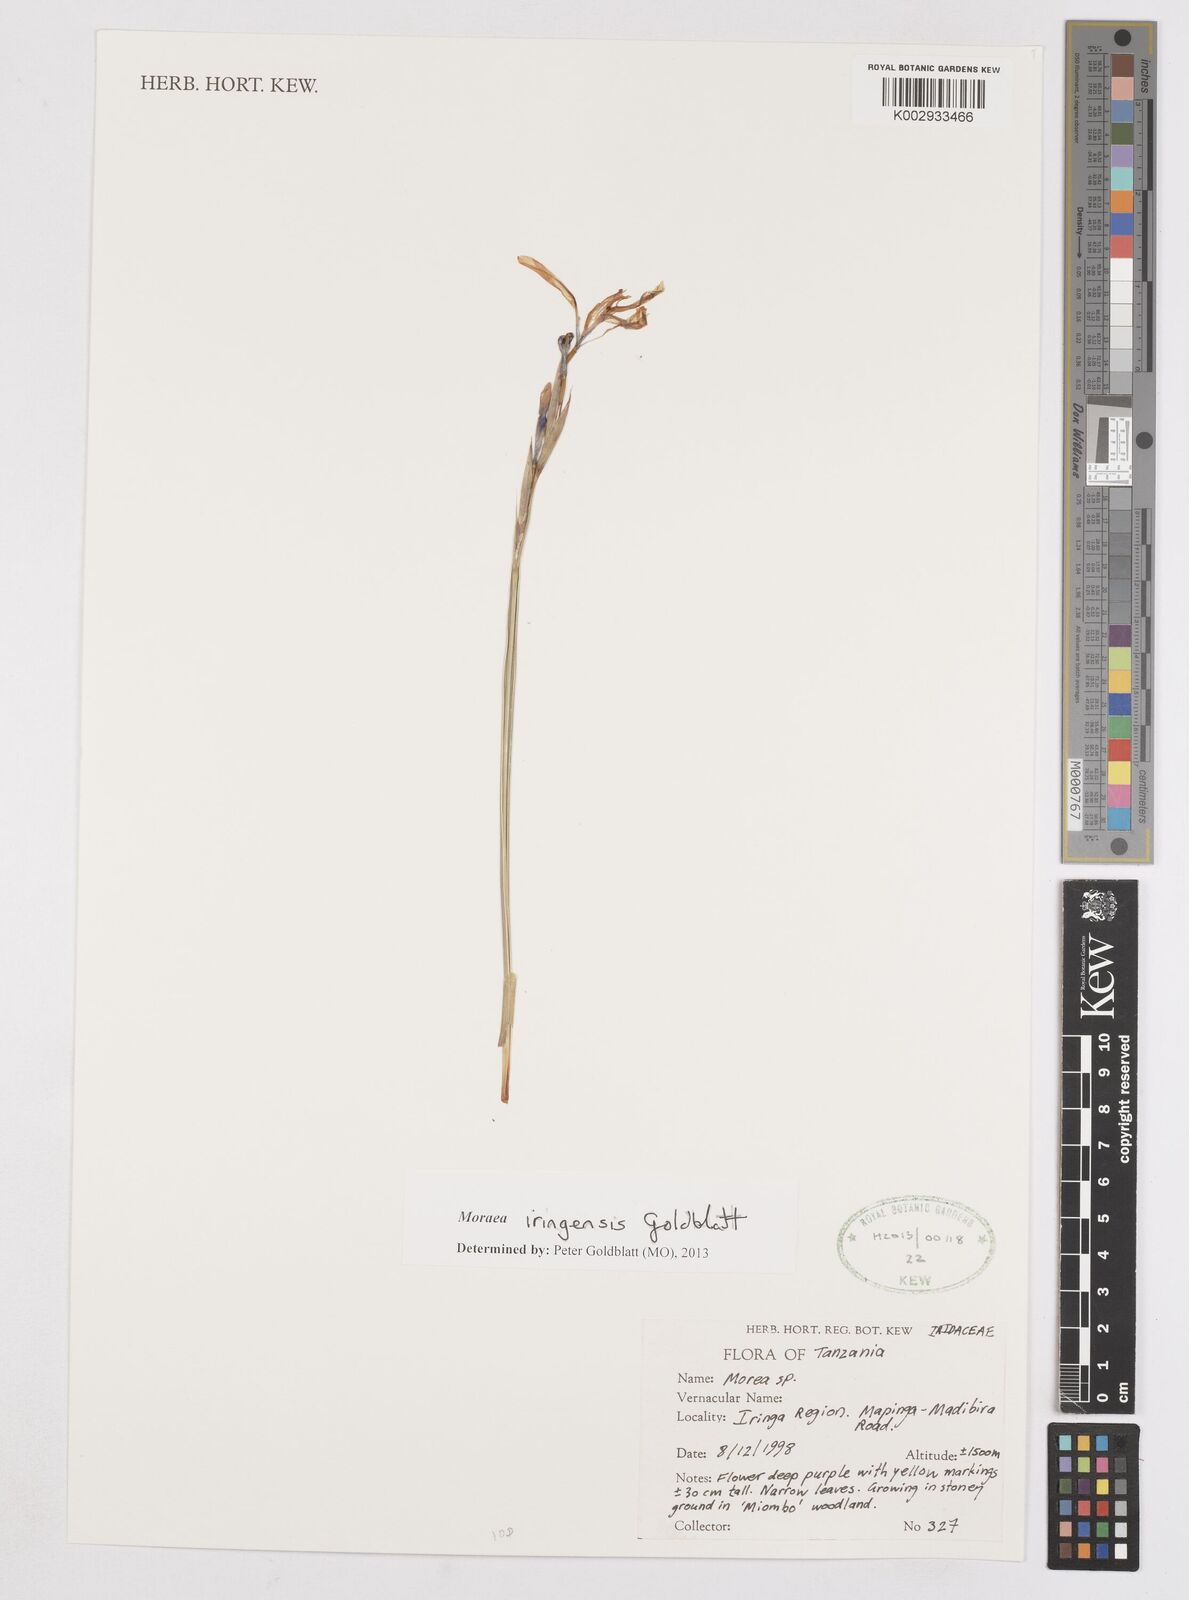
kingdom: Plantae
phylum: Tracheophyta
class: Liliopsida
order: Asparagales
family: Iridaceae
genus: Moraea
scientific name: Moraea iringensis
